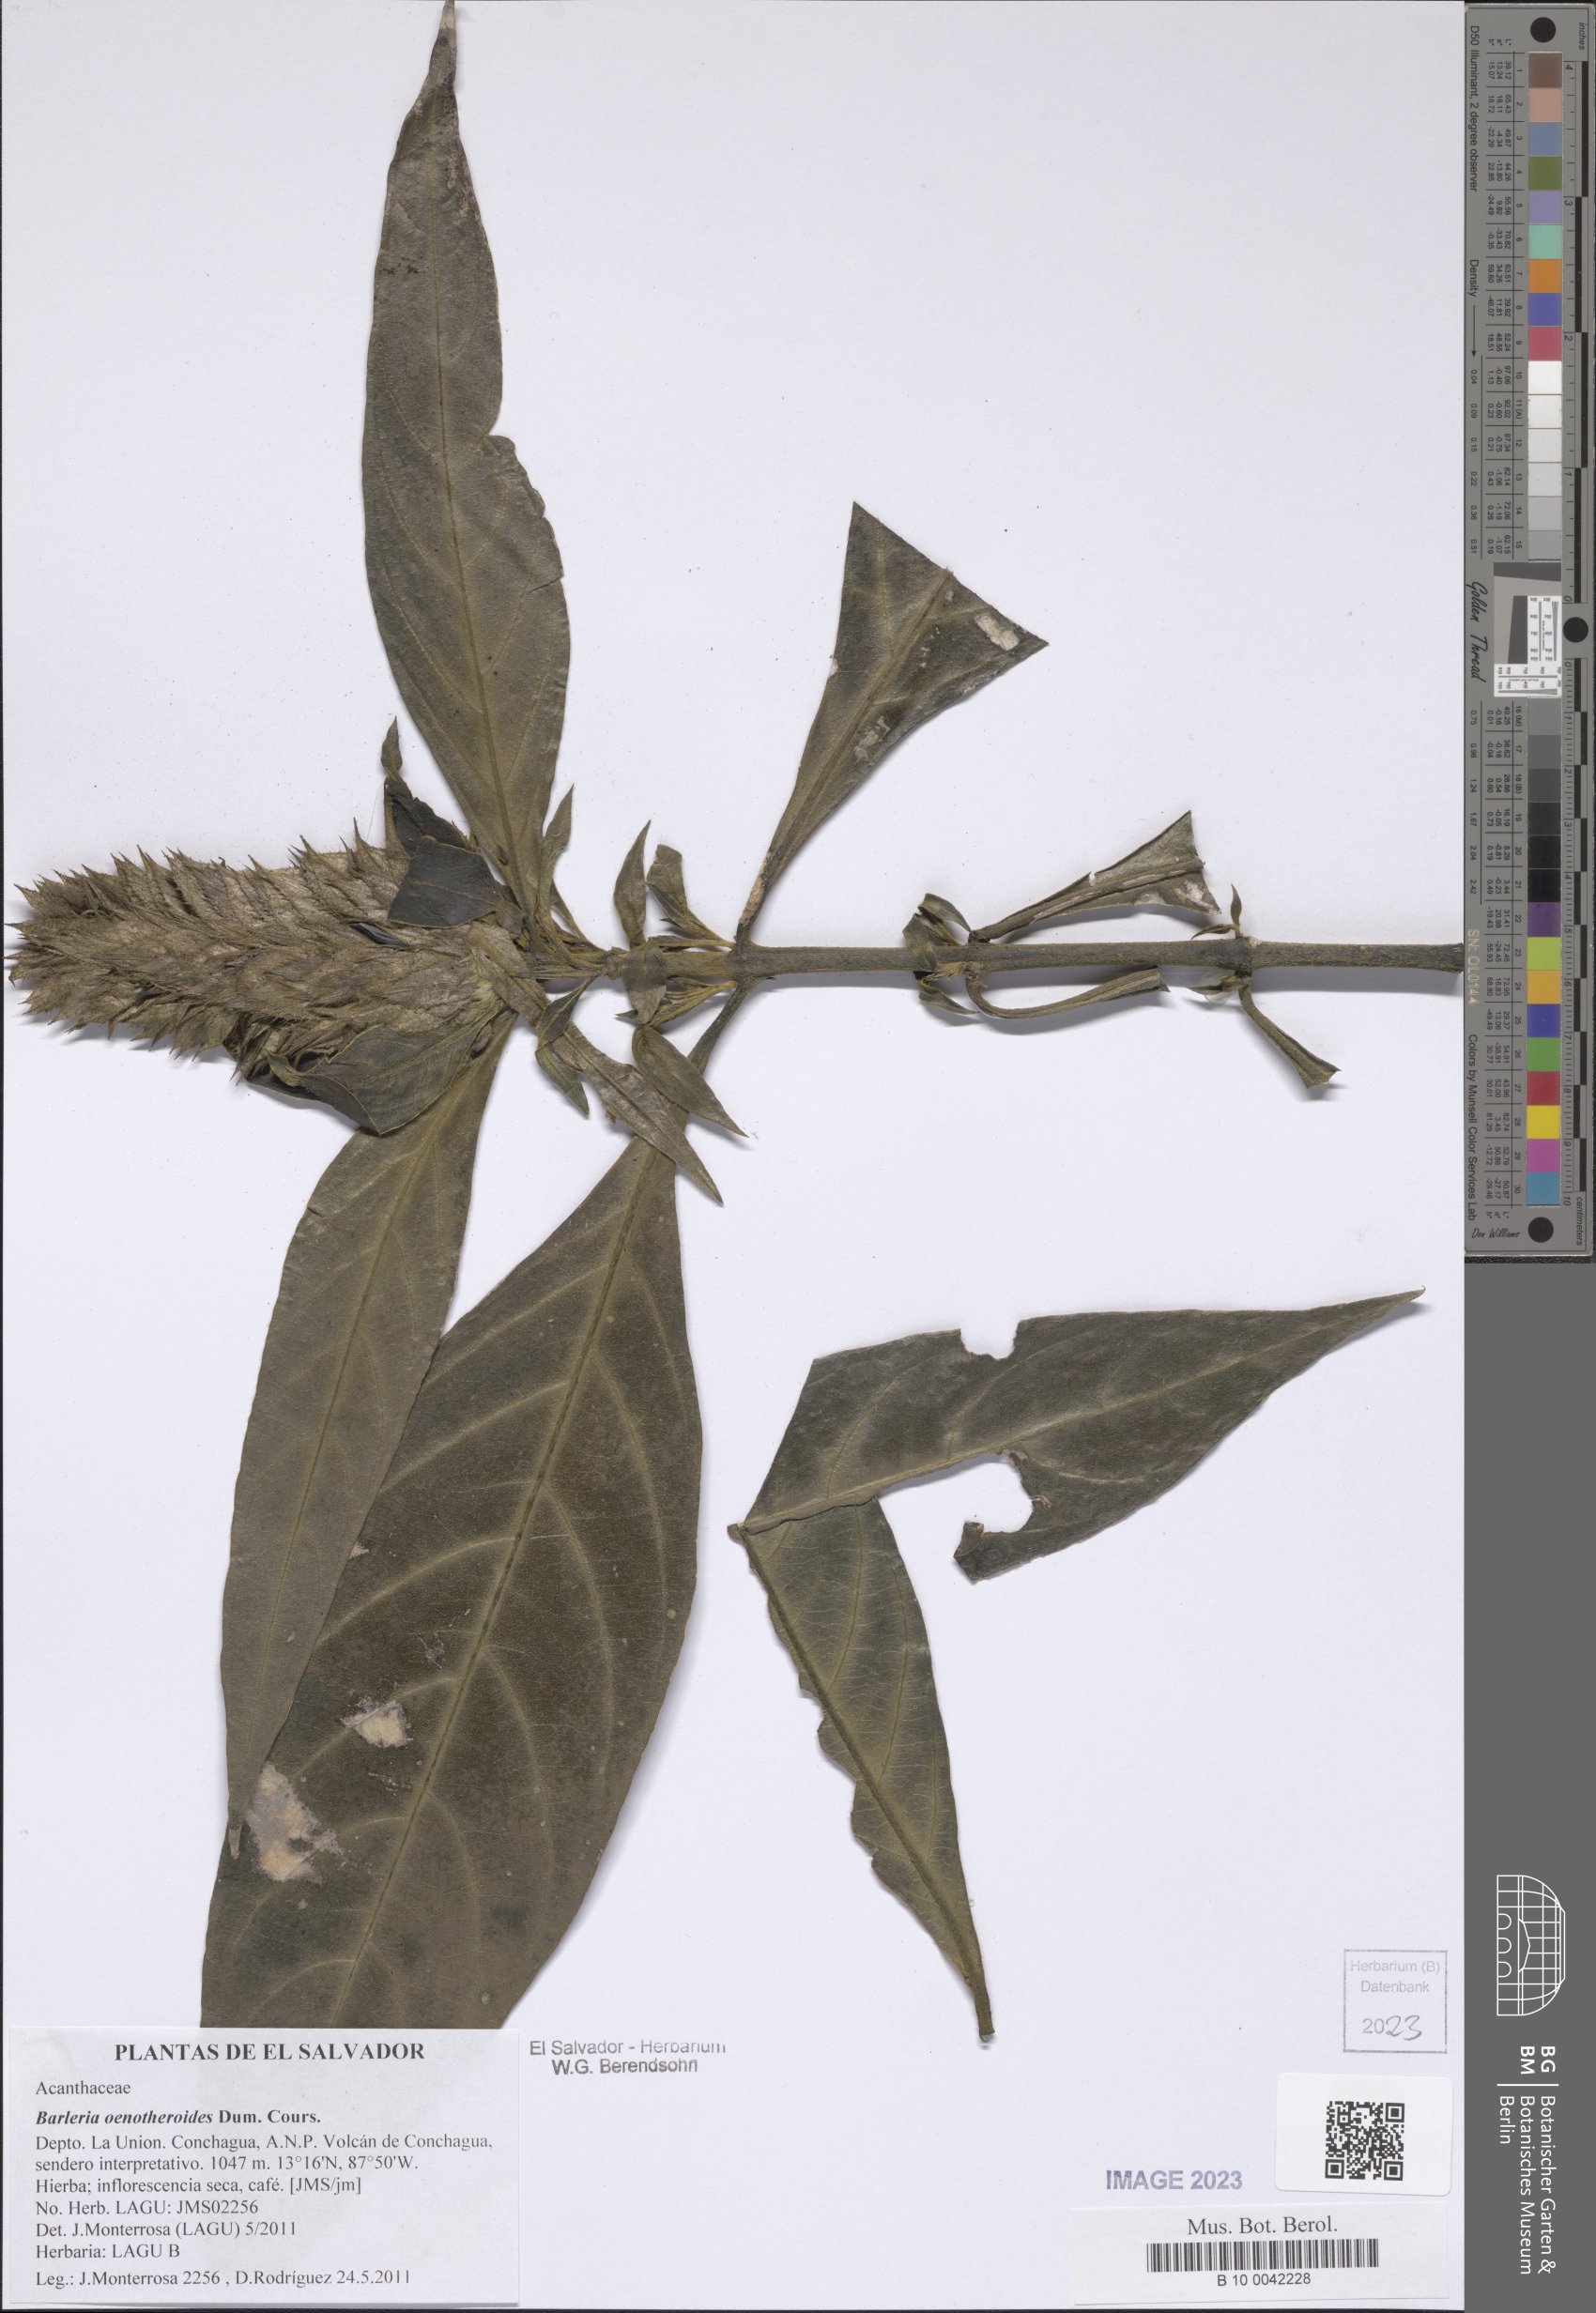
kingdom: Plantae
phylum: Tracheophyta
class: Magnoliopsida
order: Lamiales
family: Acanthaceae
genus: Barleria
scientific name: Barleria oenotheroides
